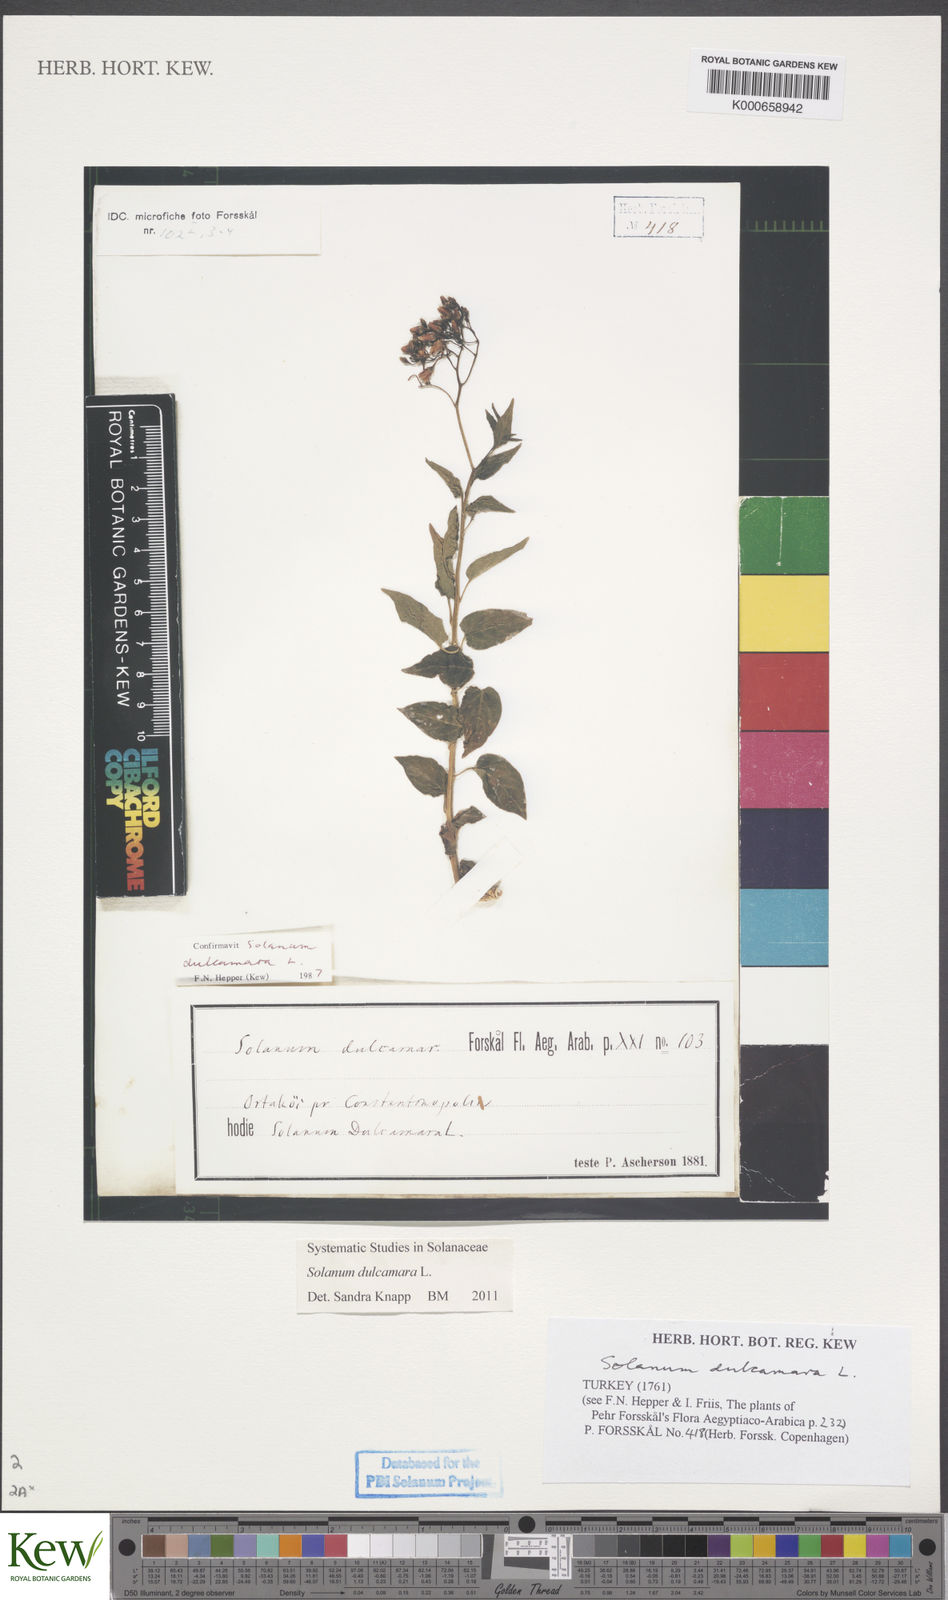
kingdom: Plantae
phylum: Tracheophyta
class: Magnoliopsida
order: Solanales
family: Solanaceae
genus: Solanum
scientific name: Solanum dulcamara
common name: Climbing nightshade
